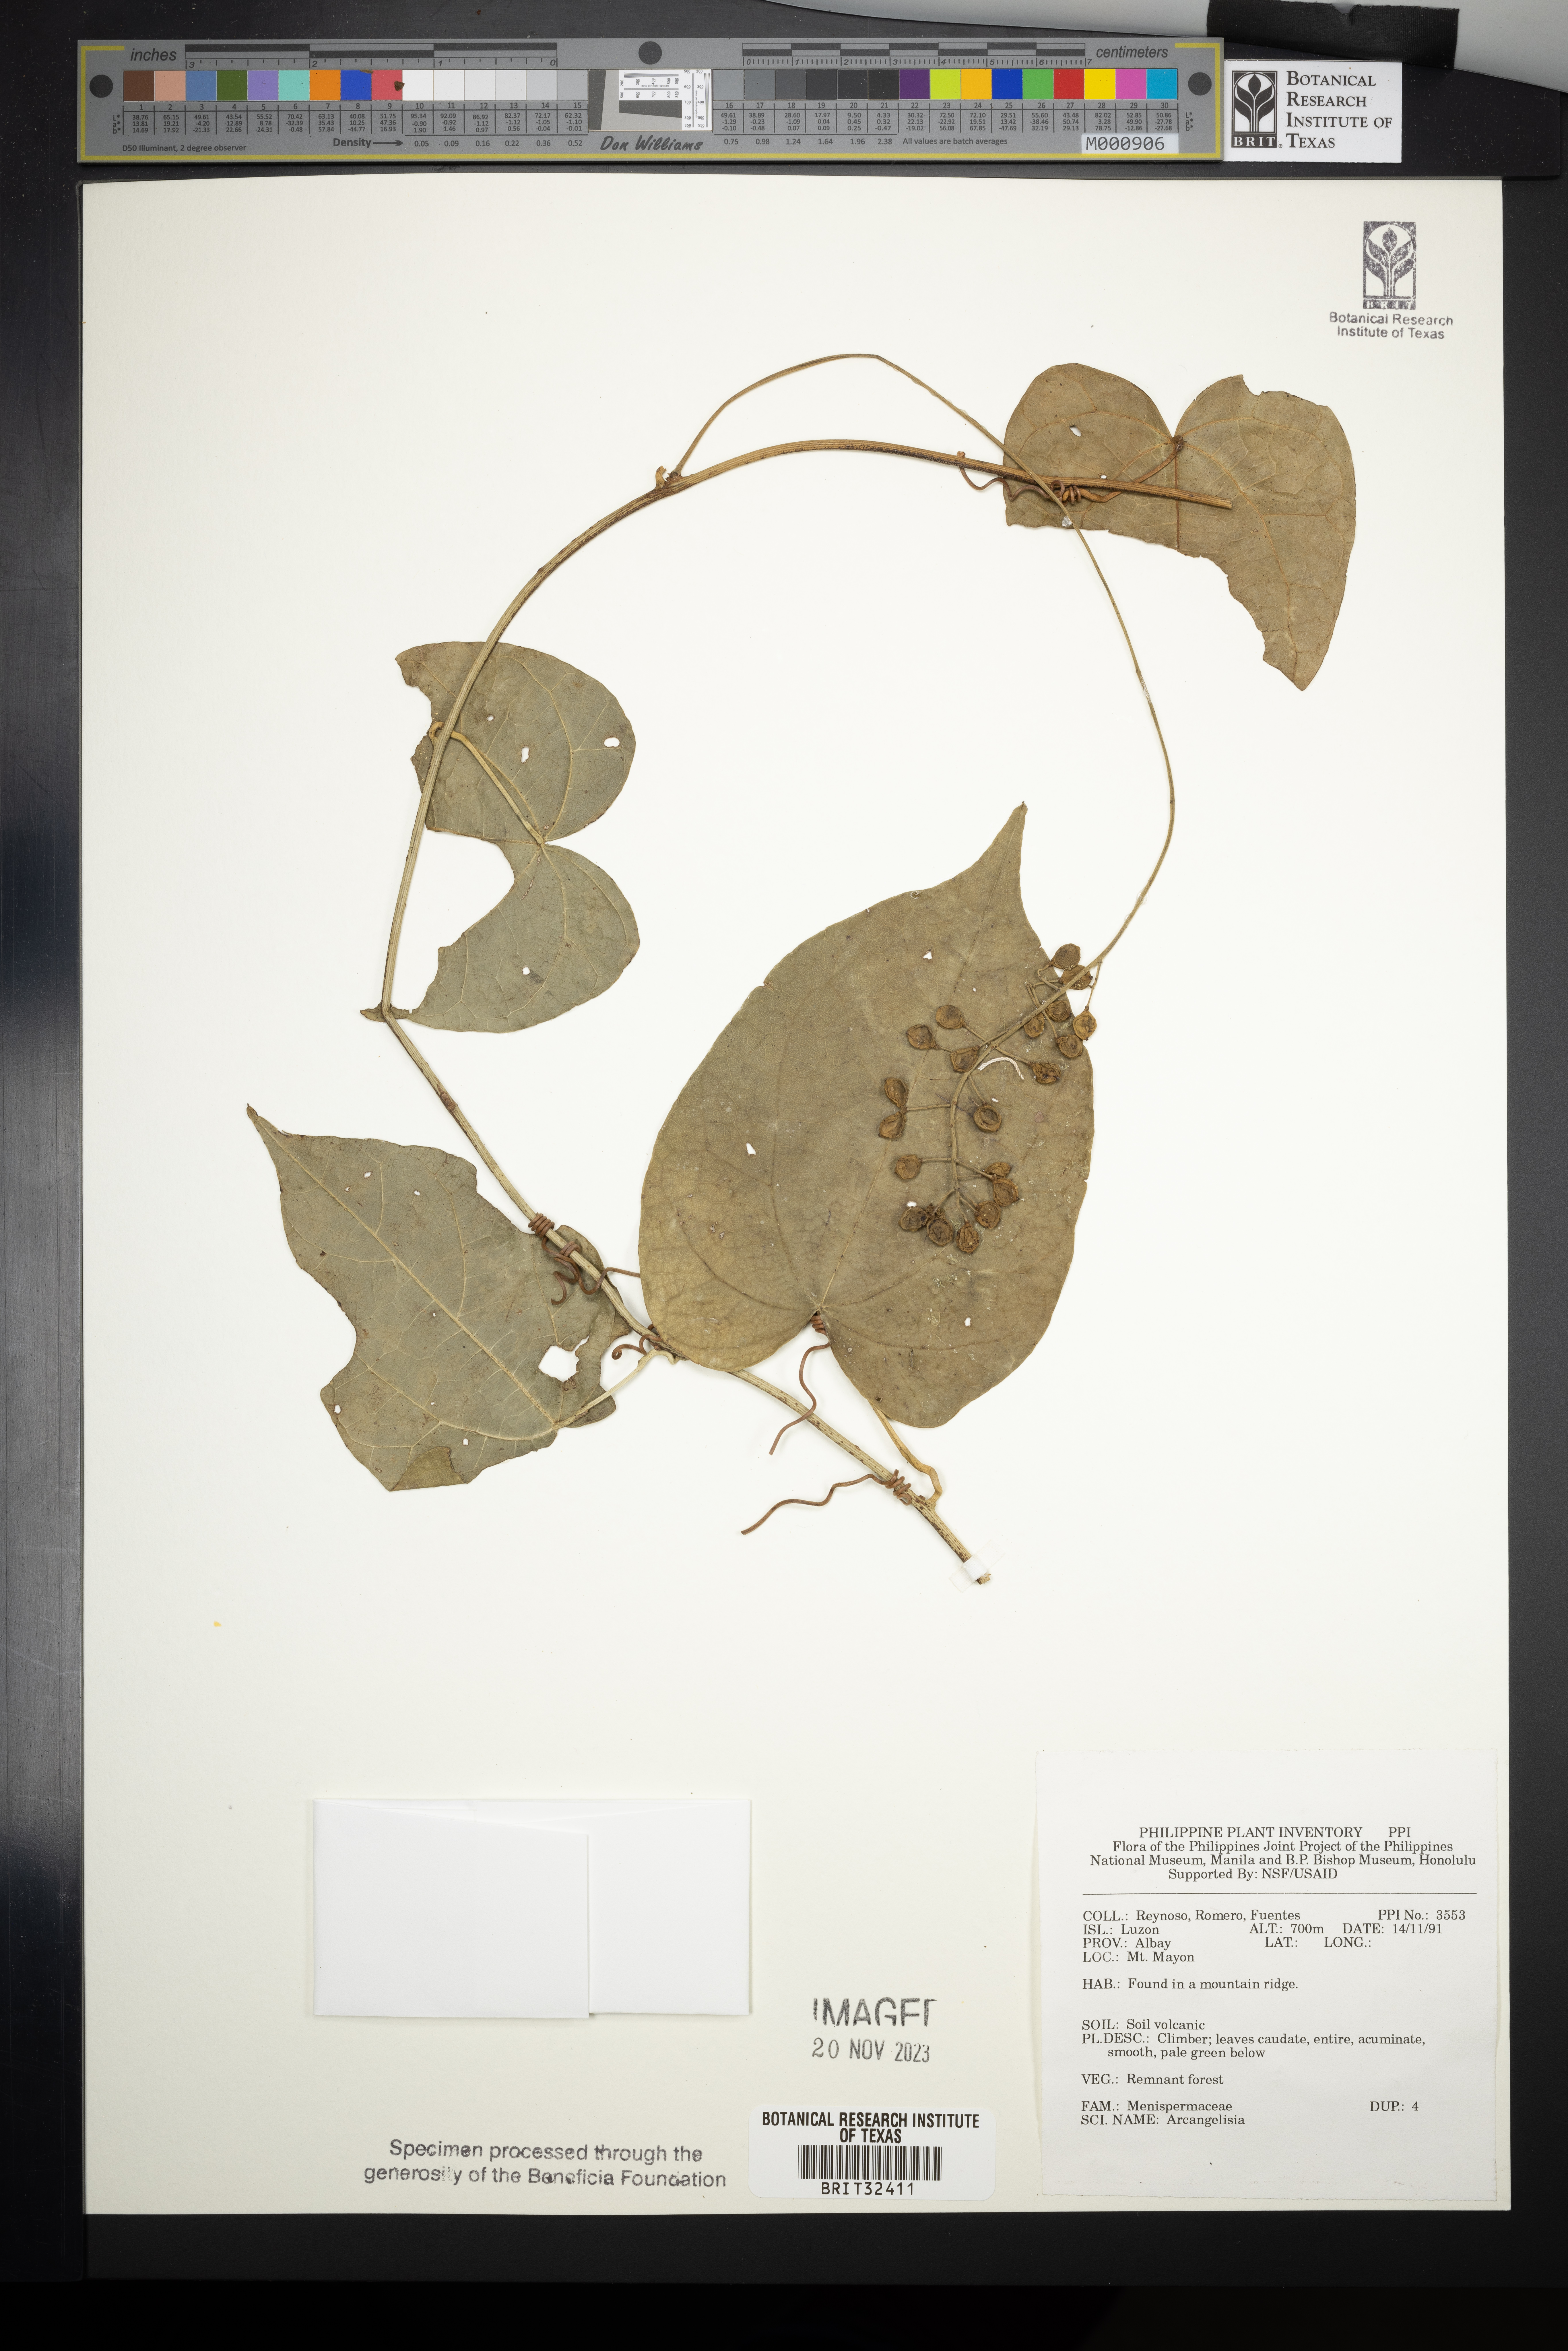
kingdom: Plantae
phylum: Tracheophyta
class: Magnoliopsida
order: Ranunculales
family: Menispermaceae
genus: Arcangelisia
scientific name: Arcangelisia
